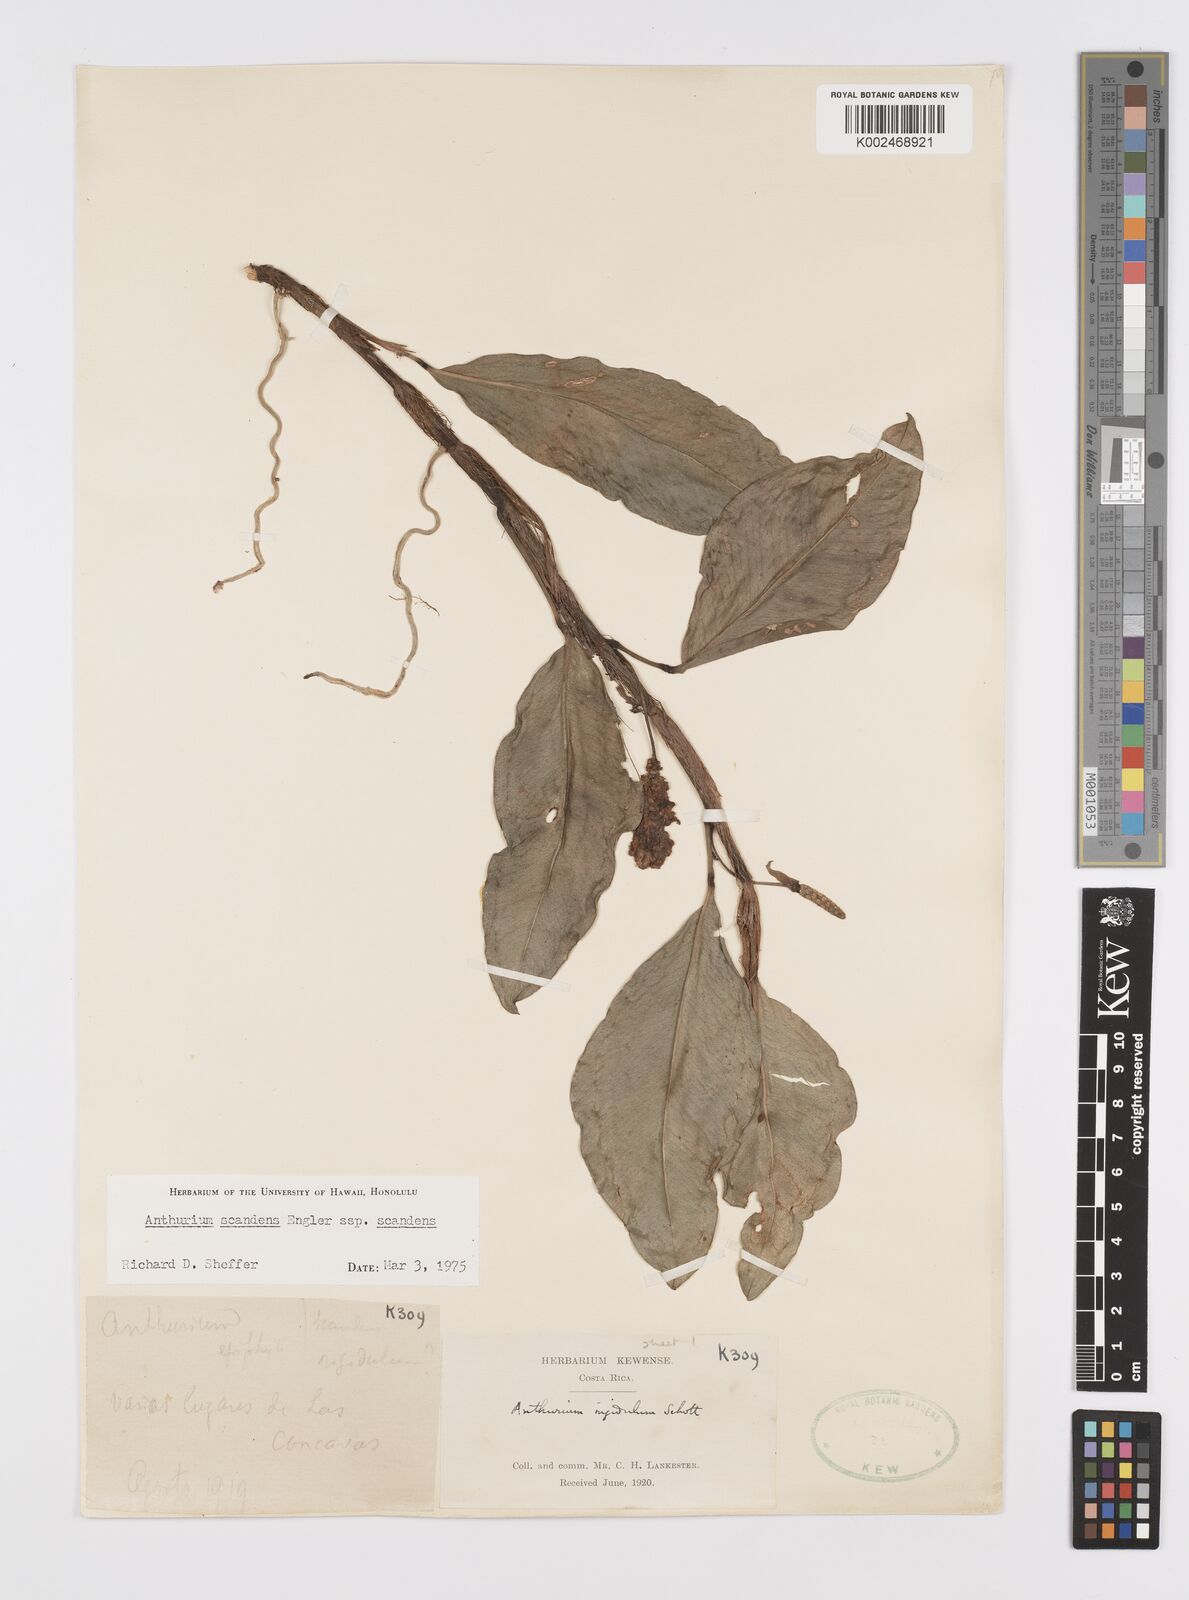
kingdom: Plantae
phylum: Tracheophyta
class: Liliopsida
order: Alismatales
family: Araceae
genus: Anthurium
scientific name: Anthurium scandens
